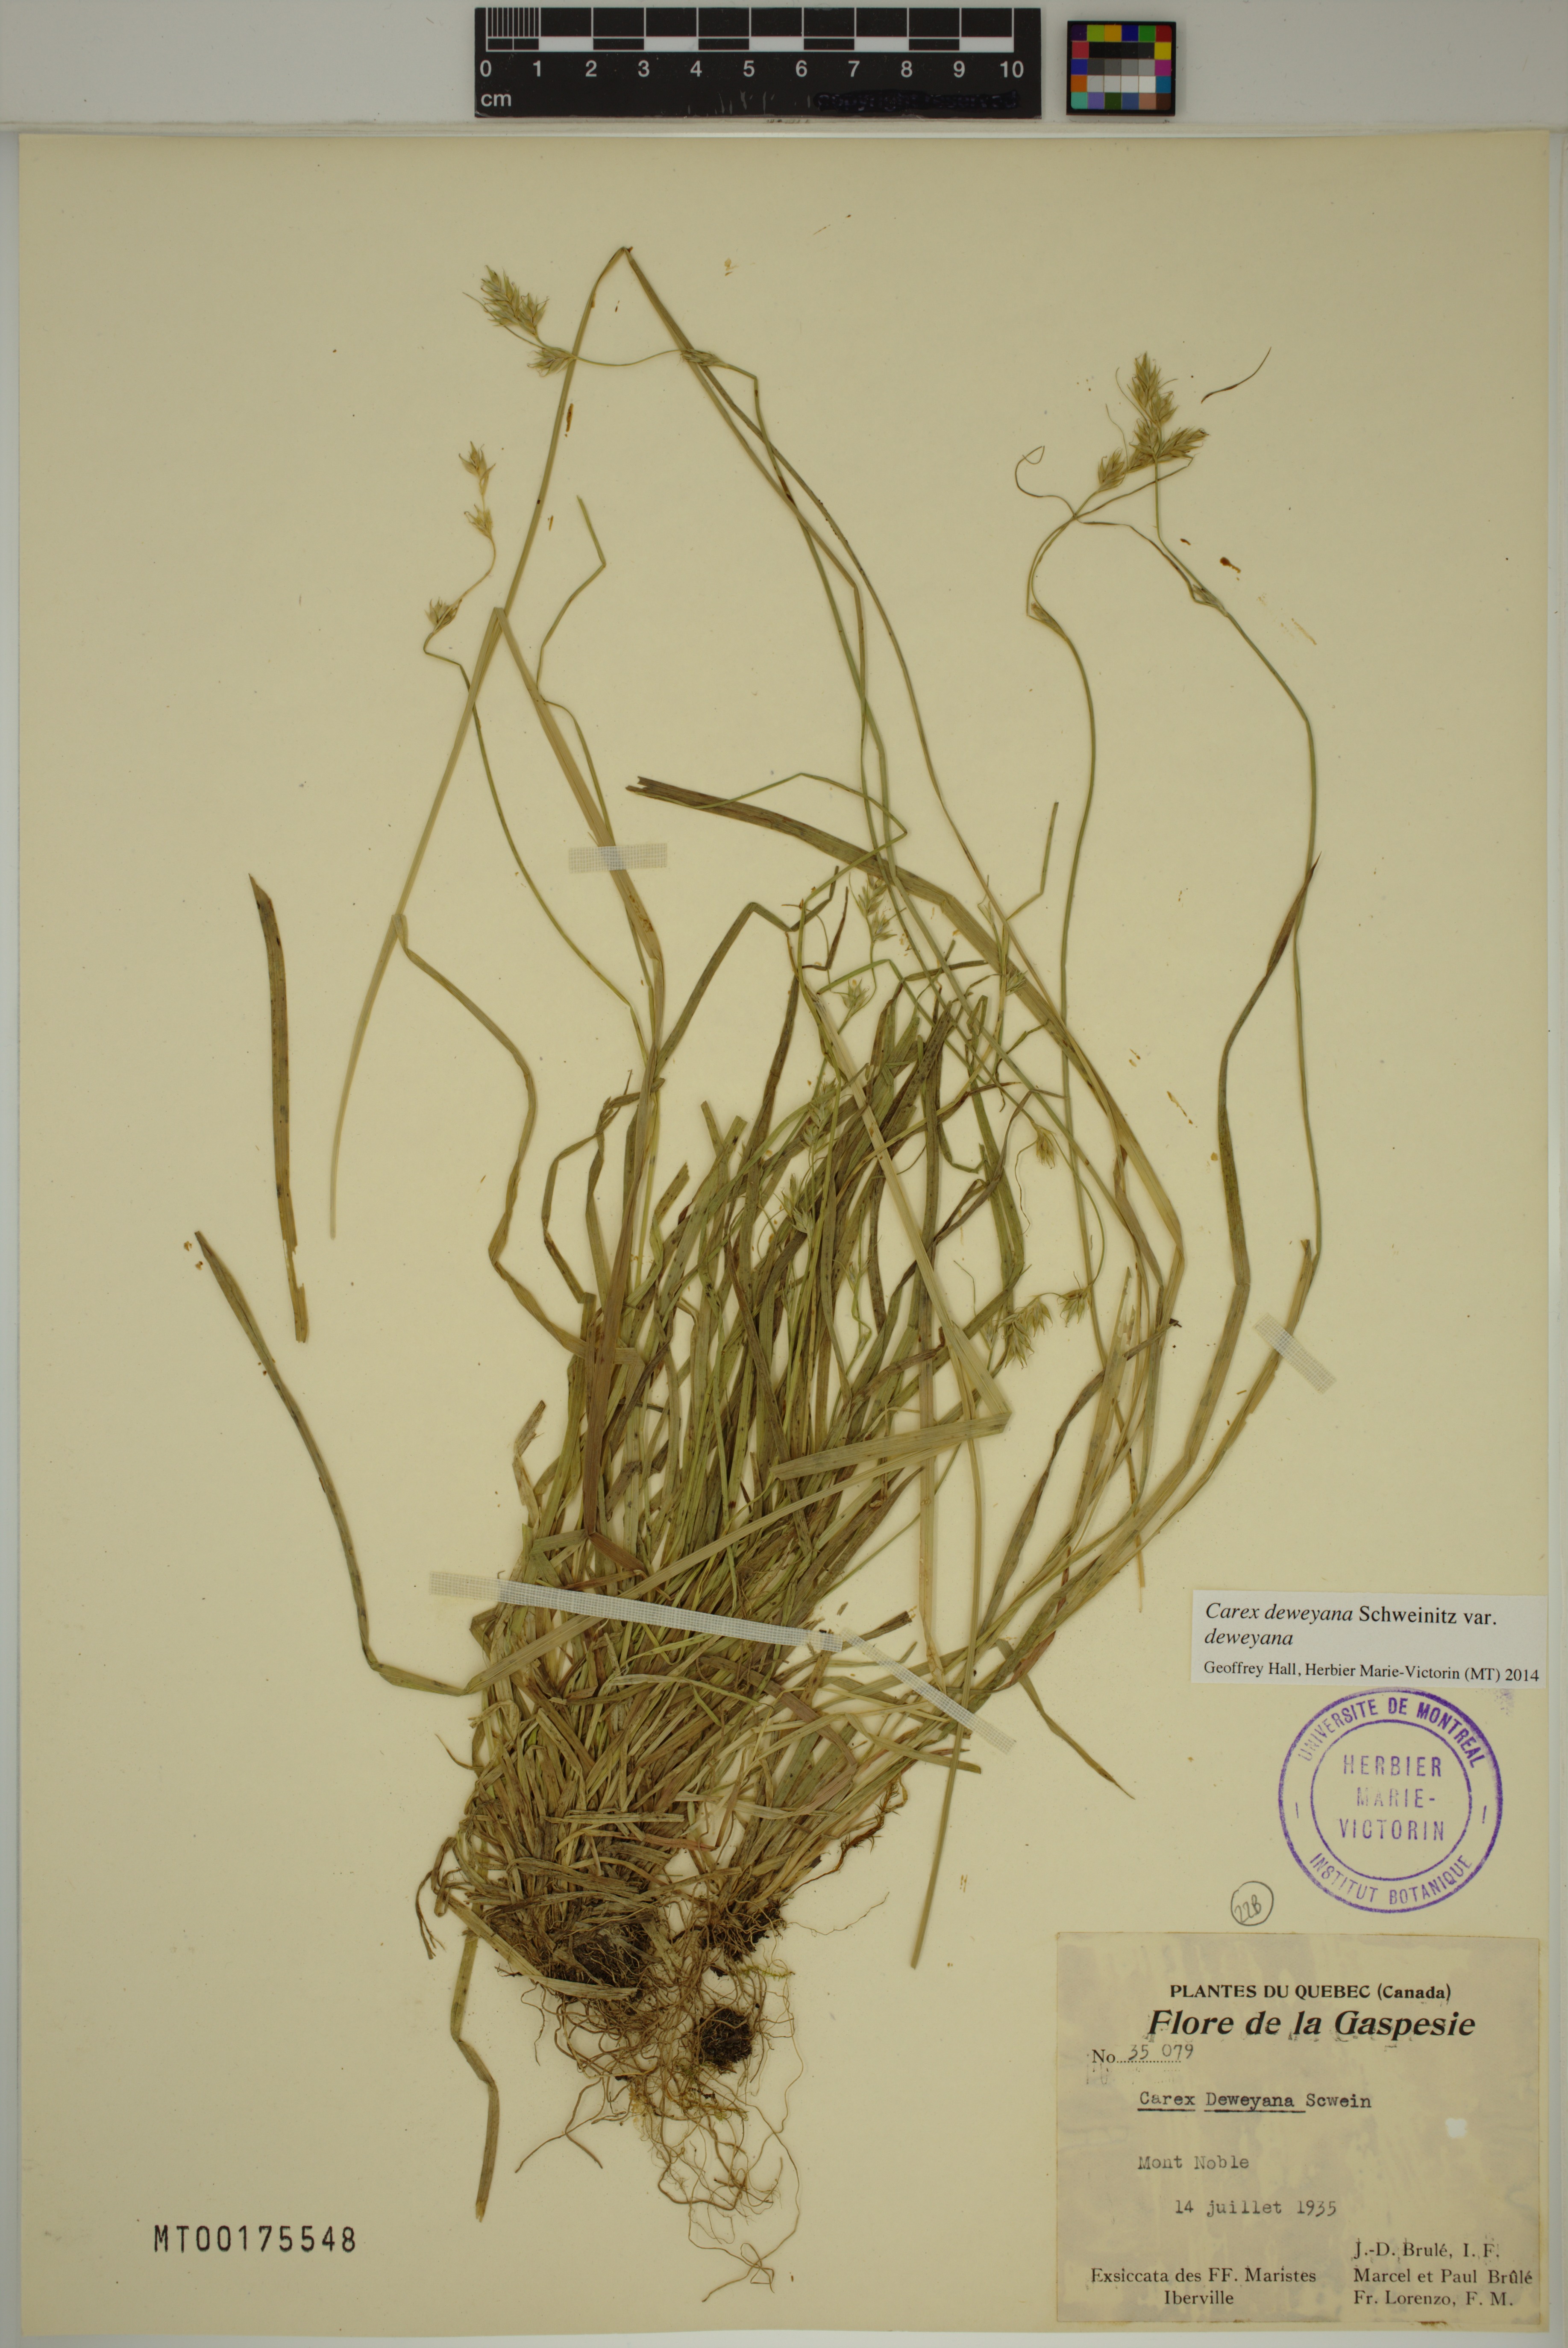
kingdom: Plantae
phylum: Tracheophyta
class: Liliopsida
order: Poales
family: Cyperaceae
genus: Carex
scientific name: Carex deweyana
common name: Dewey's sedge
